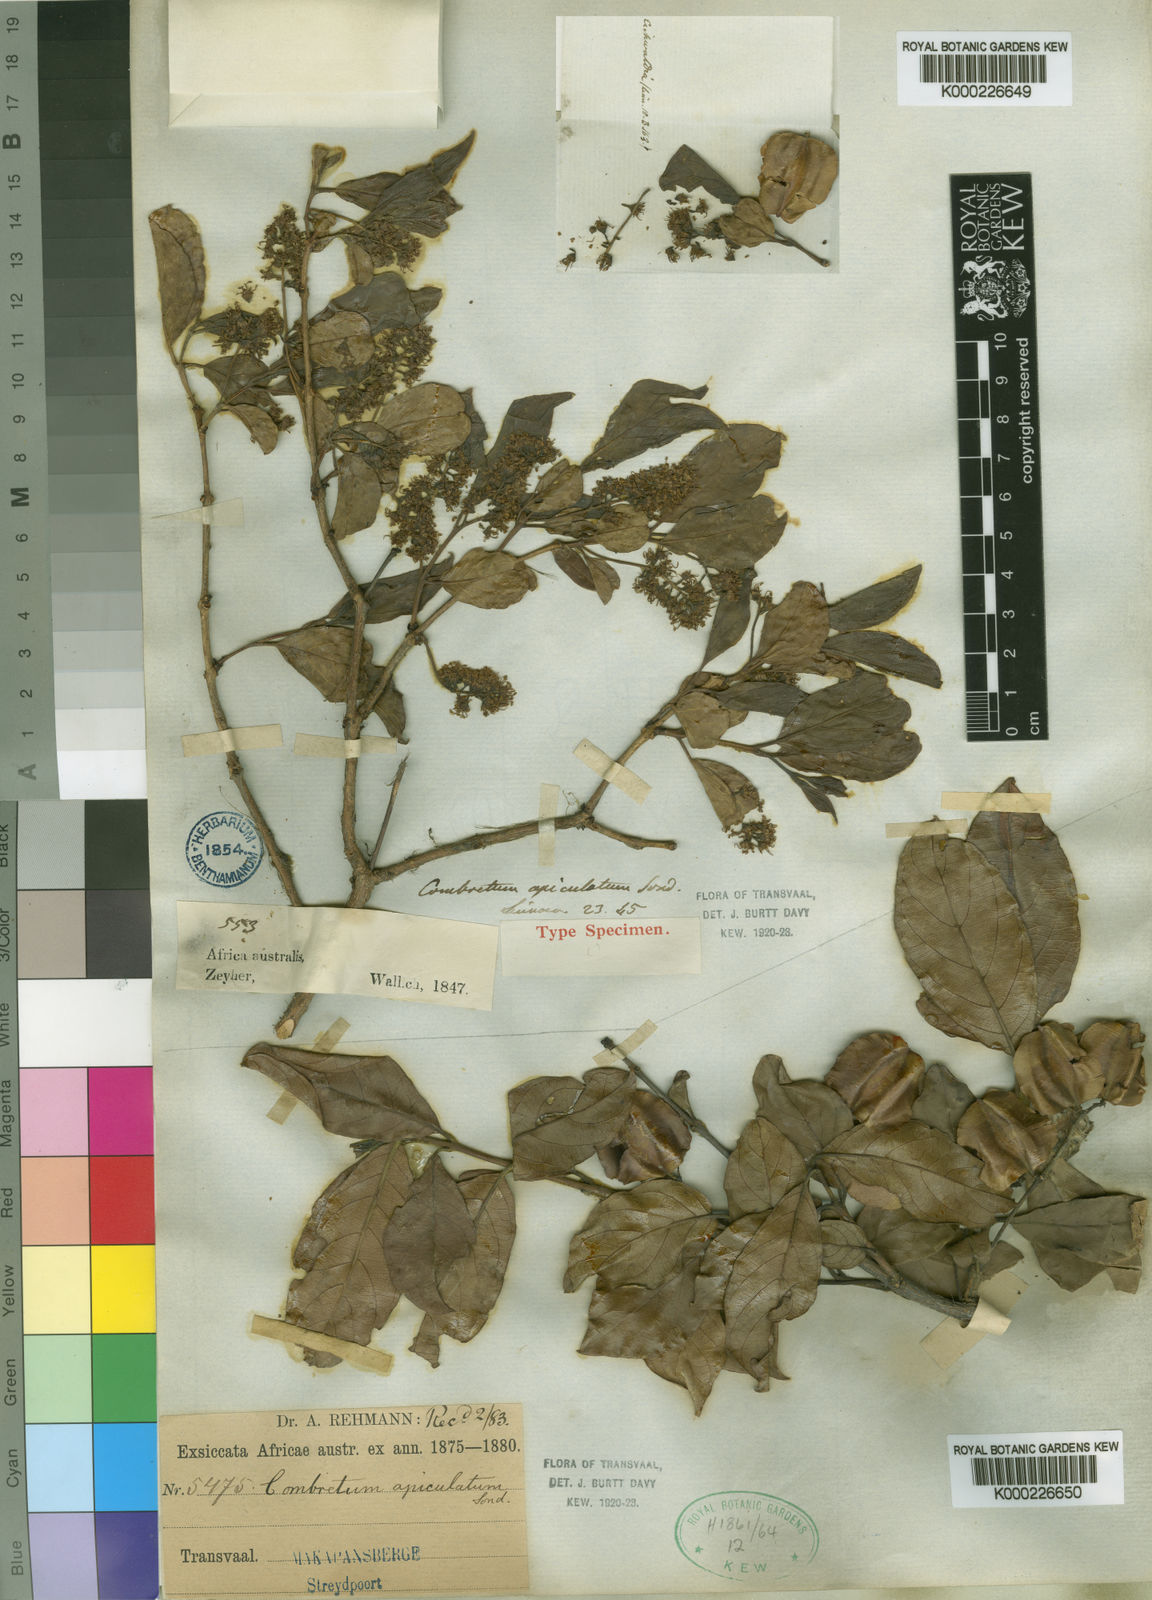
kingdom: Plantae
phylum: Tracheophyta
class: Magnoliopsida
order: Myrtales
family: Combretaceae
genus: Combretum
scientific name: Combretum apiculatum
